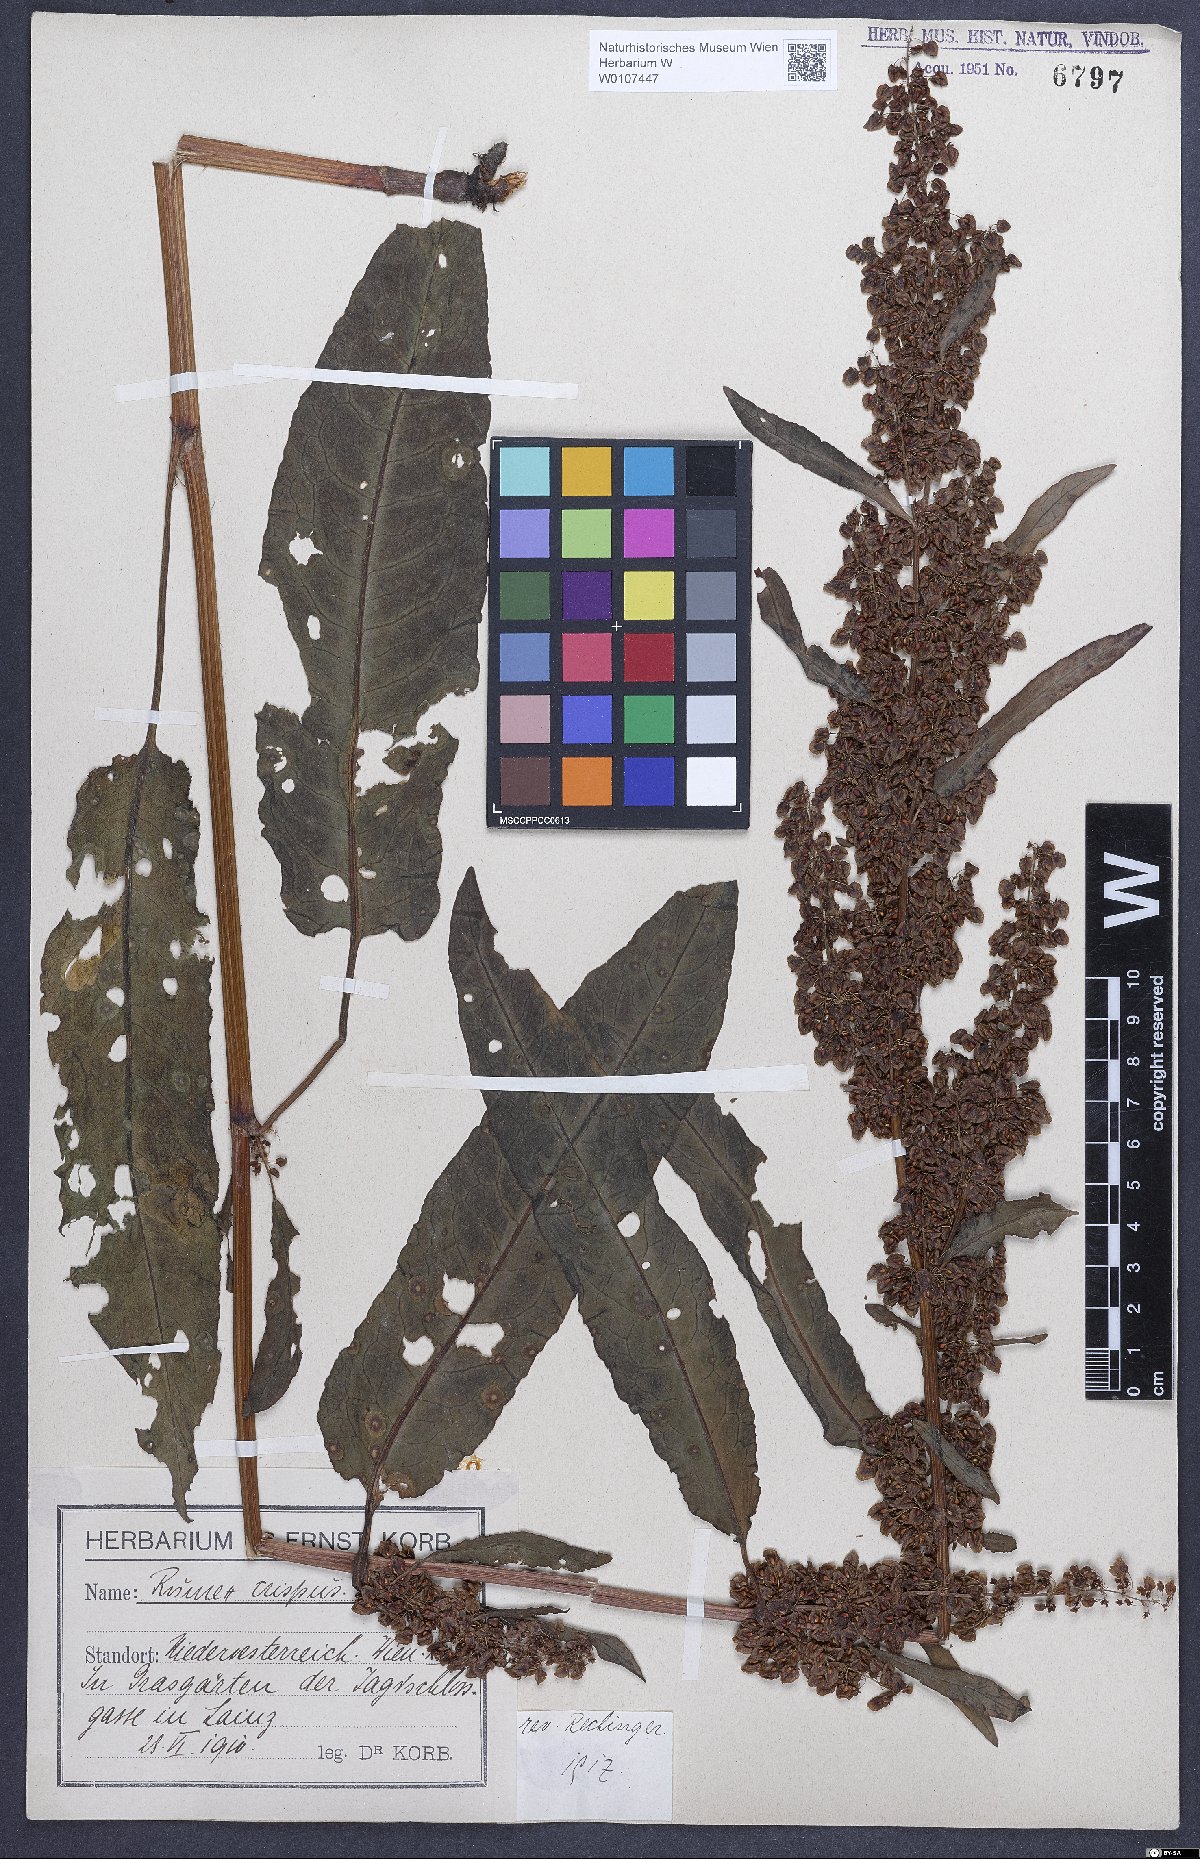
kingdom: Plantae
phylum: Tracheophyta
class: Magnoliopsida
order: Caryophyllales
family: Polygonaceae
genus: Rumex
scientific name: Rumex crispus
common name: Curled dock
